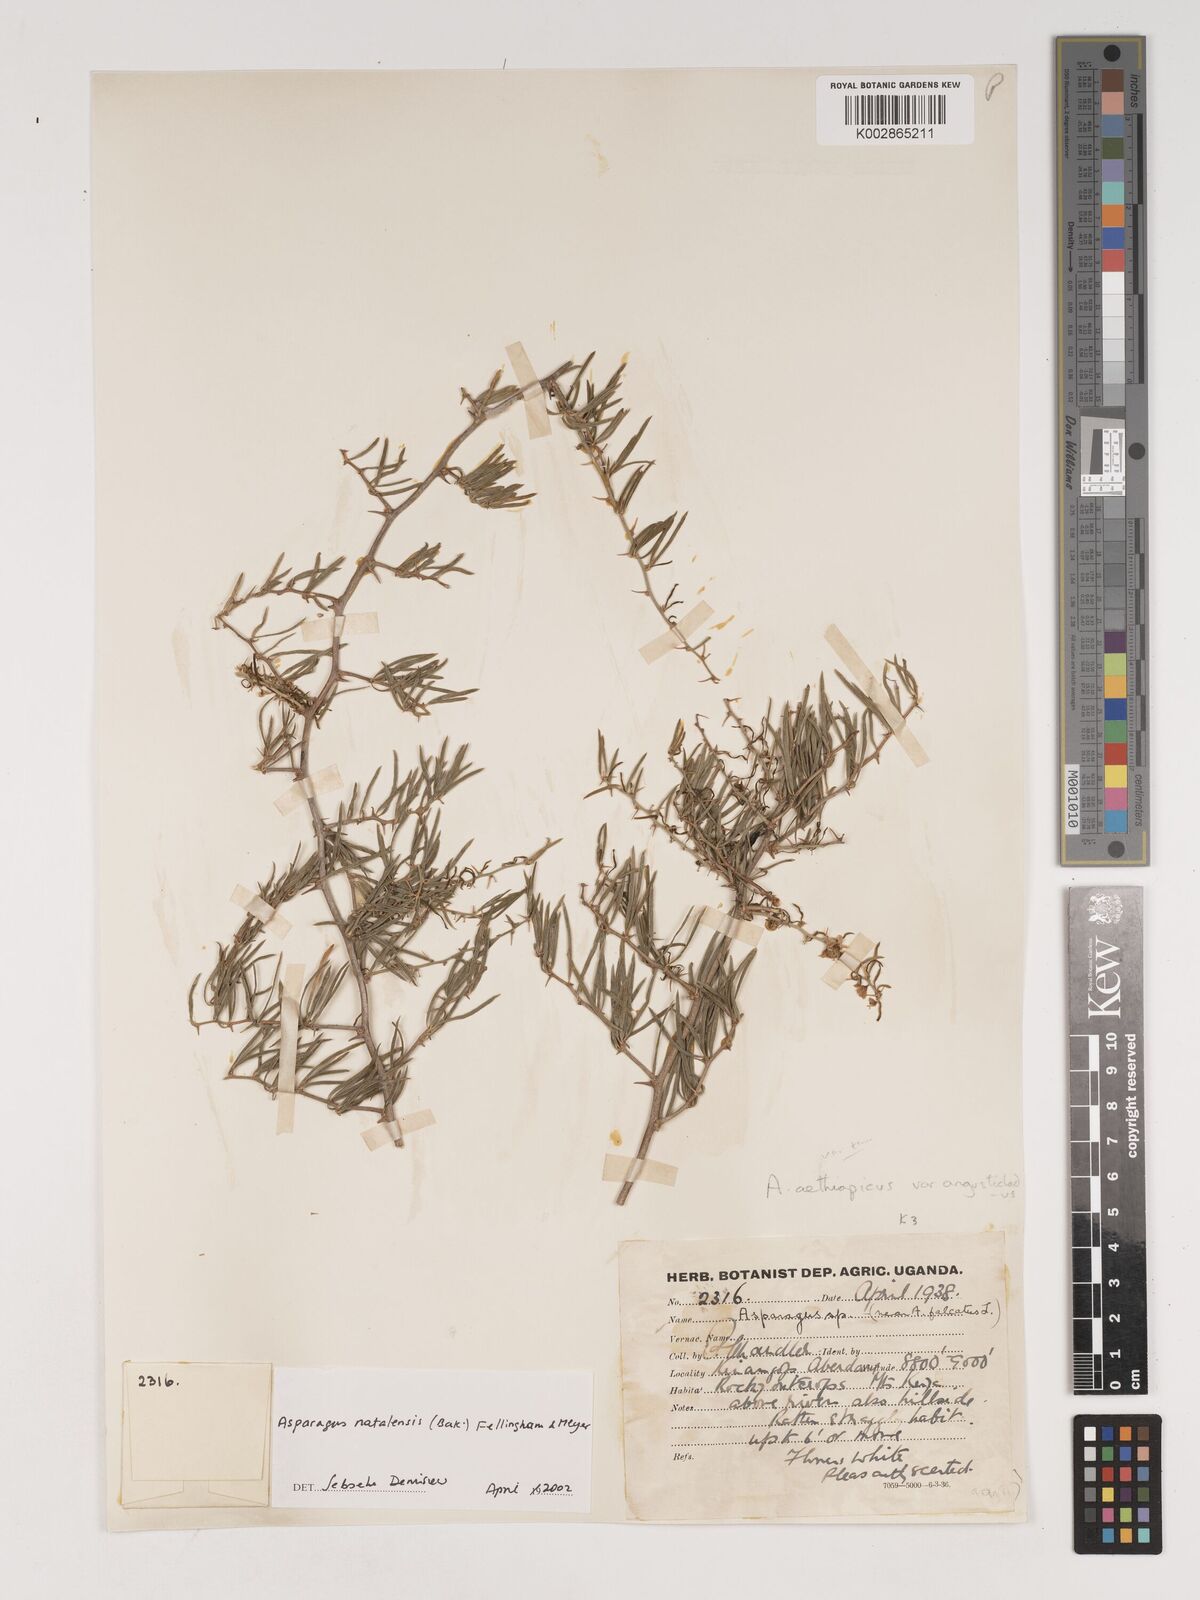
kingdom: Plantae
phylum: Tracheophyta
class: Liliopsida
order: Asparagales
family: Asparagaceae
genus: Asparagus
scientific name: Asparagus natalensis
